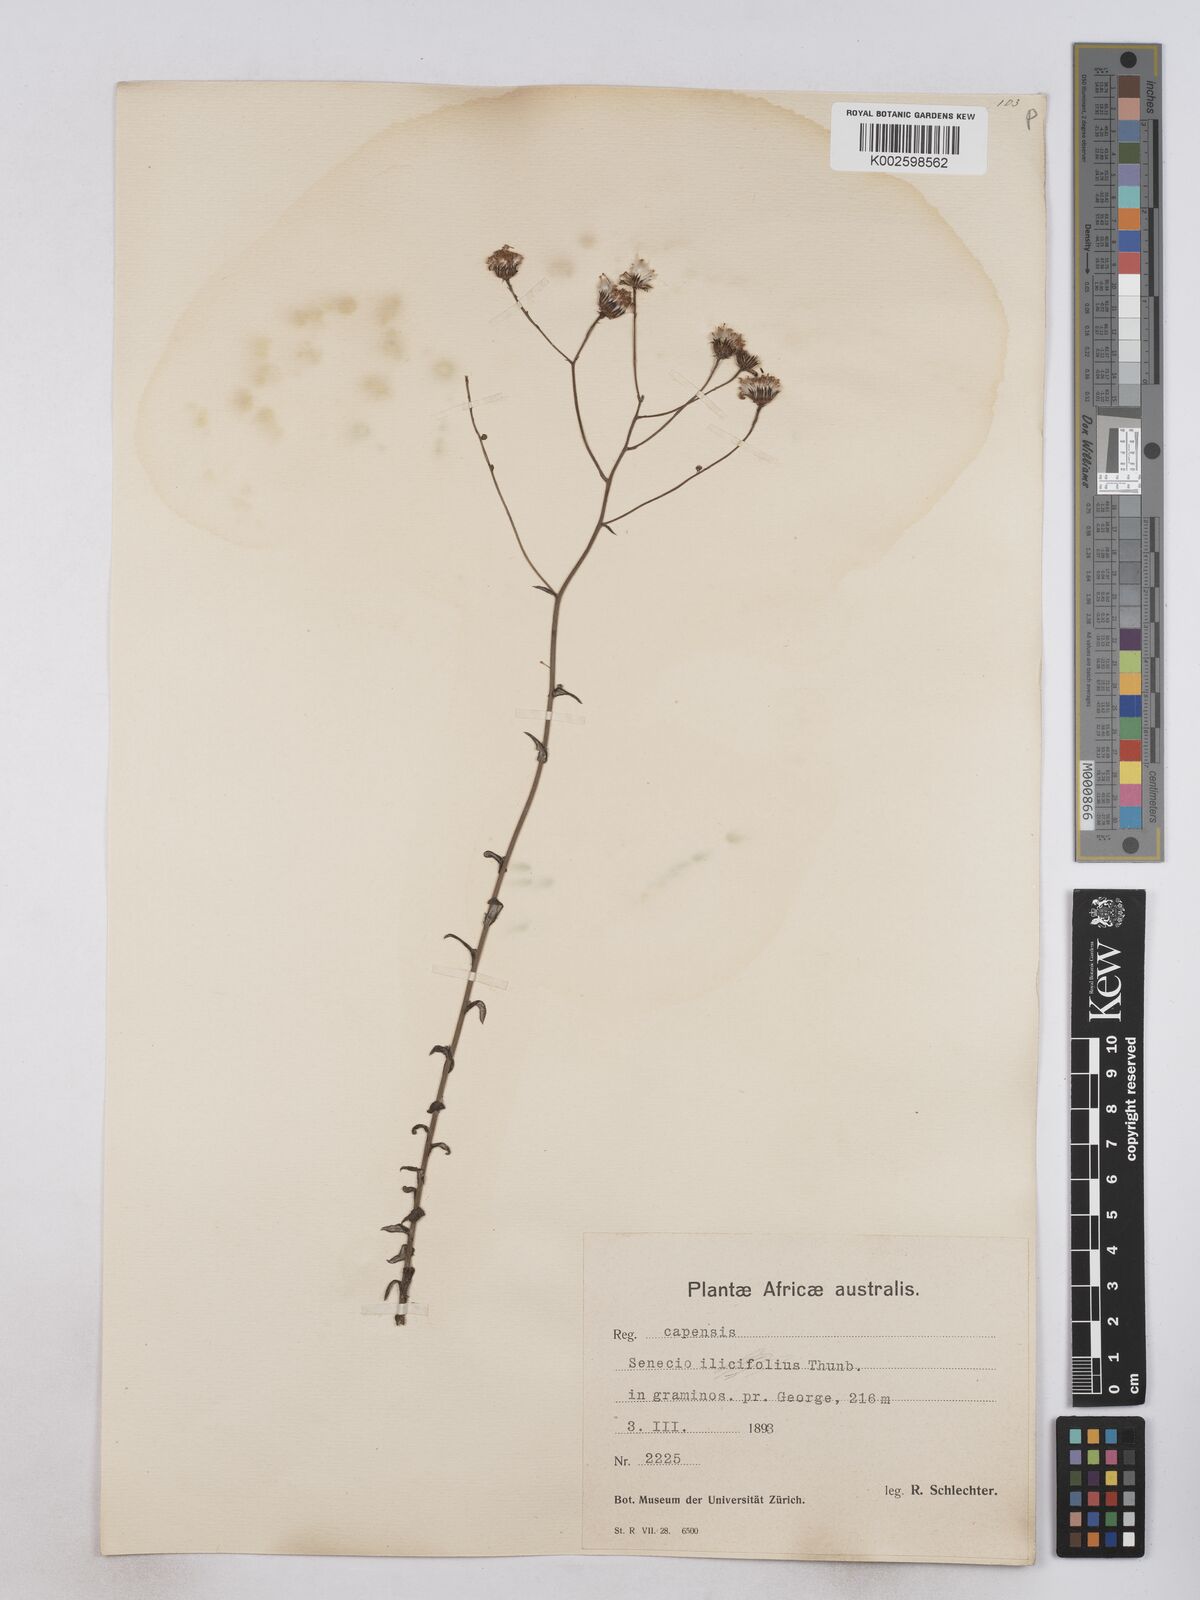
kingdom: Plantae
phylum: Tracheophyta
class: Magnoliopsida
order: Asterales
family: Asteraceae
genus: Senecio
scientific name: Senecio juniperinus
